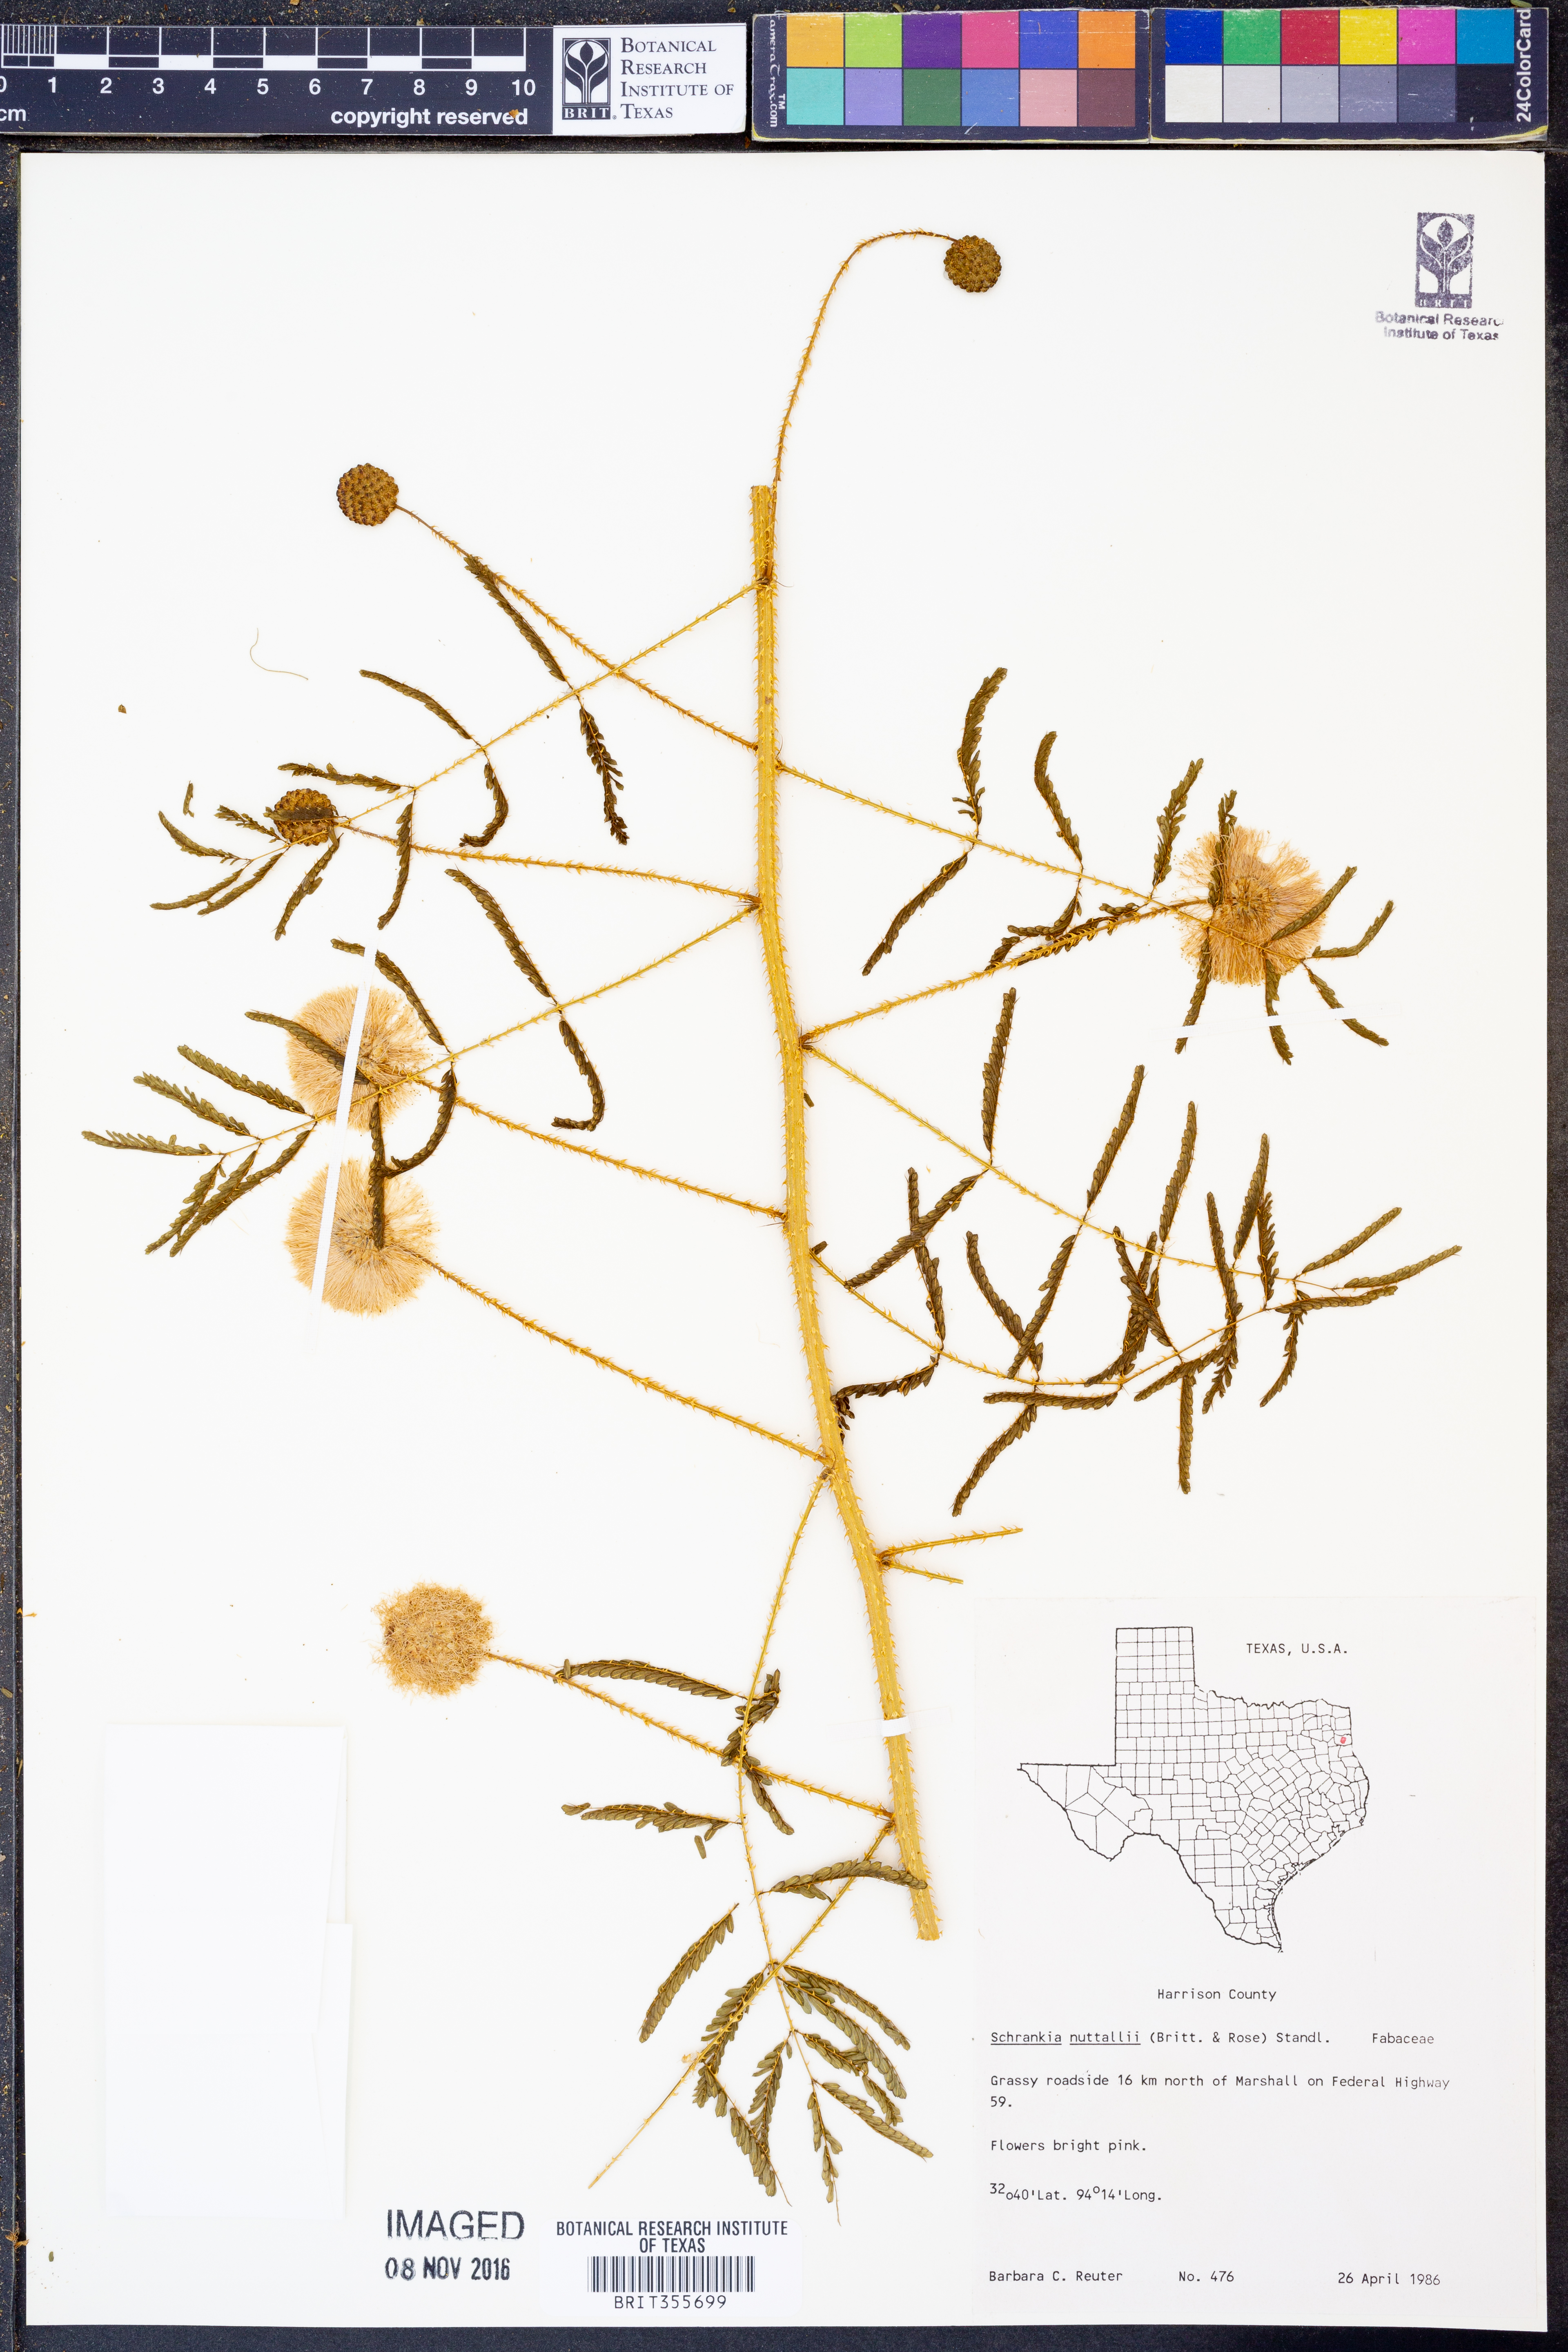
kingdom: Plantae
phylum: Tracheophyta
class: Magnoliopsida
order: Fabales
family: Fabaceae
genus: Mimosa
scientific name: Mimosa quadrivalvis
